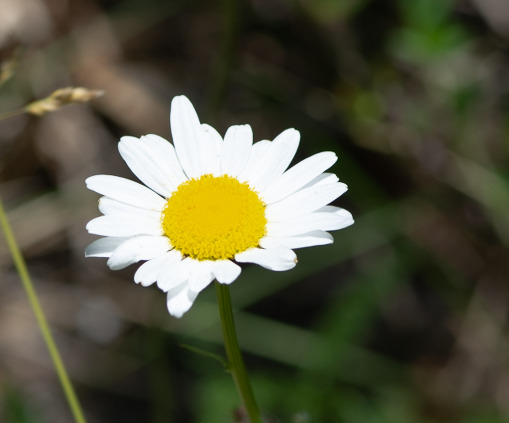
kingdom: Plantae
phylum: Tracheophyta
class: Magnoliopsida
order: Asterales
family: Asteraceae
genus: Leucanthemum
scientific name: Leucanthemum vulgare
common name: Hvid okseøje
